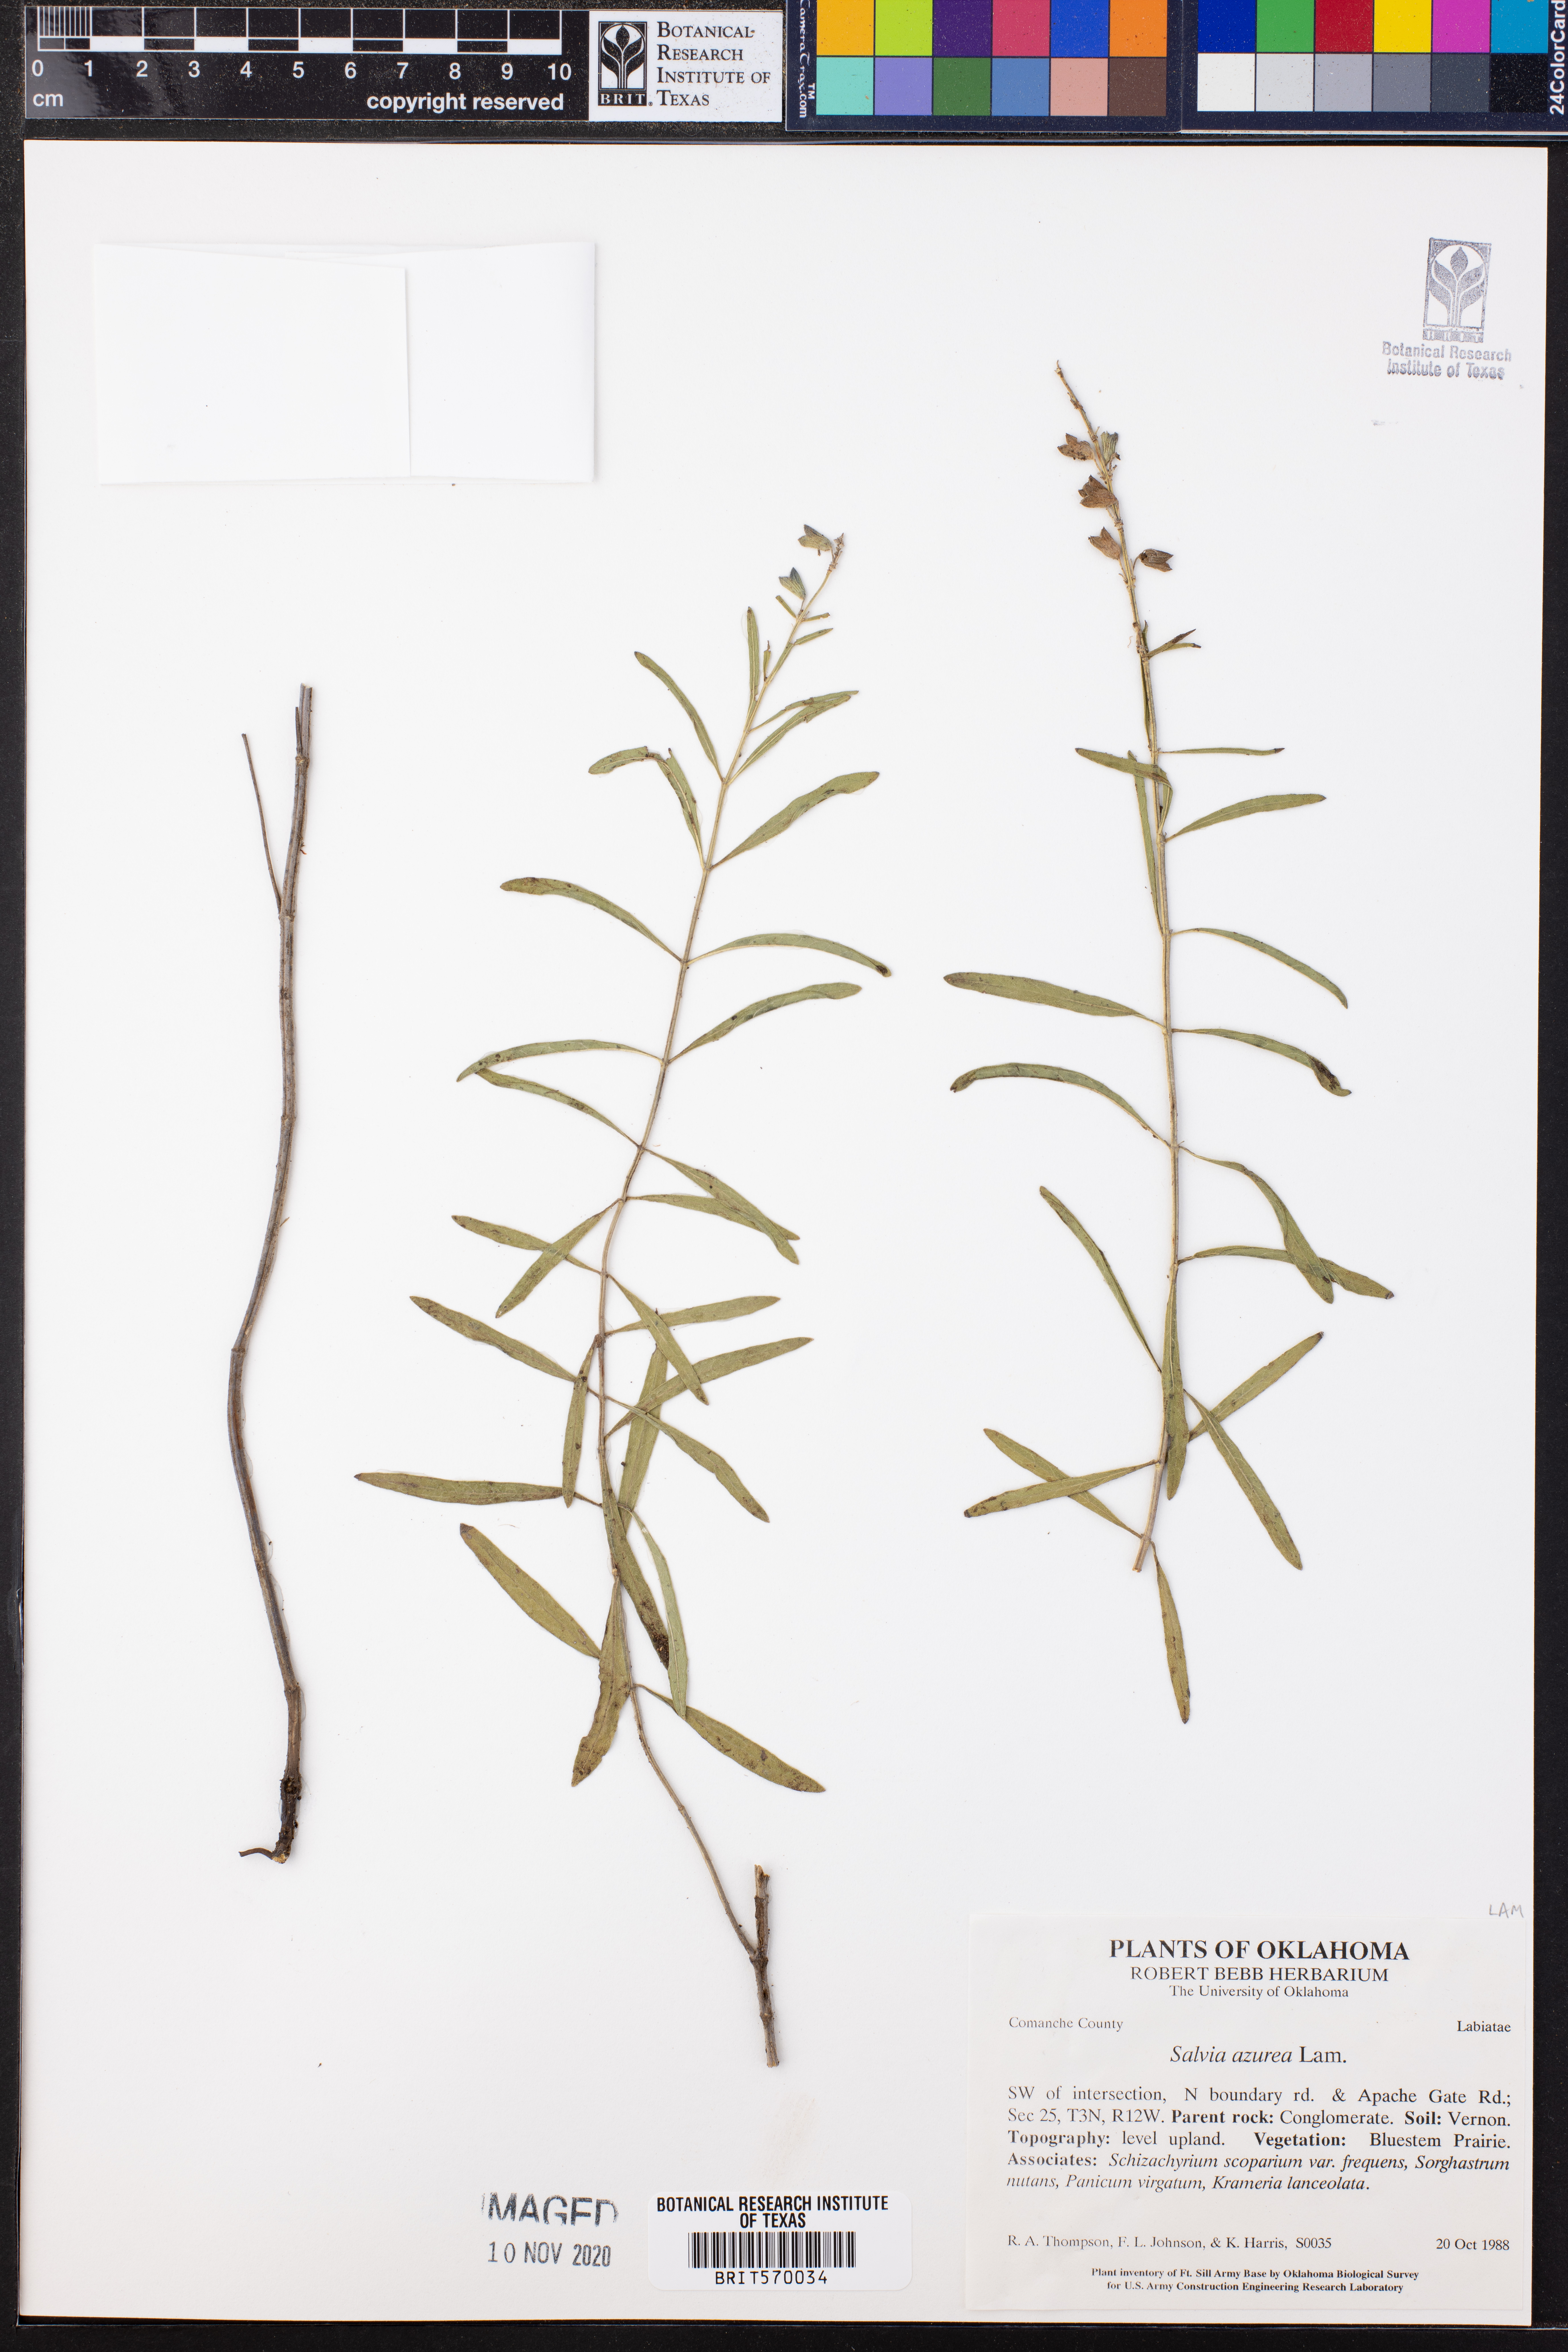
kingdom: Plantae
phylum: Tracheophyta
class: Magnoliopsida
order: Lamiales
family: Lamiaceae
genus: Salvia
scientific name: Salvia azurea
